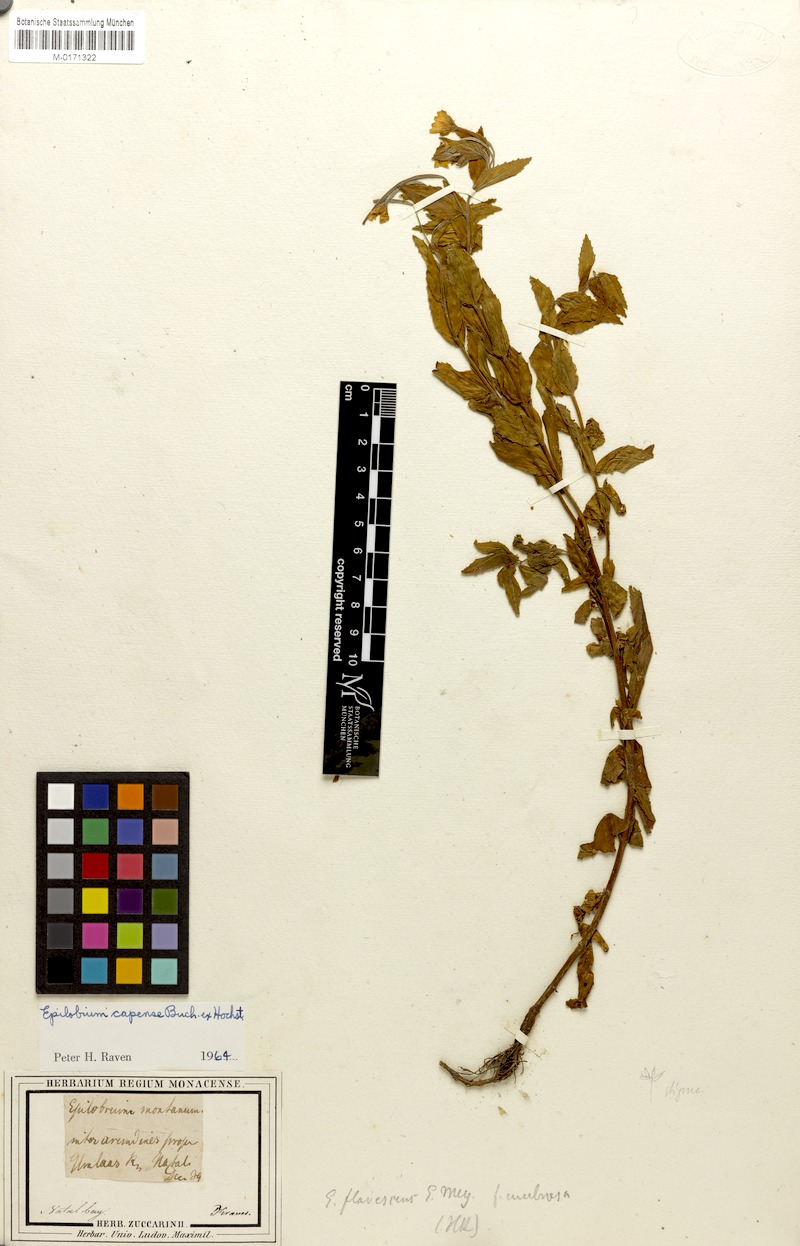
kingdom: Plantae
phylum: Tracheophyta
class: Magnoliopsida
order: Myrtales
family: Onagraceae
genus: Epilobium
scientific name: Epilobium capense
